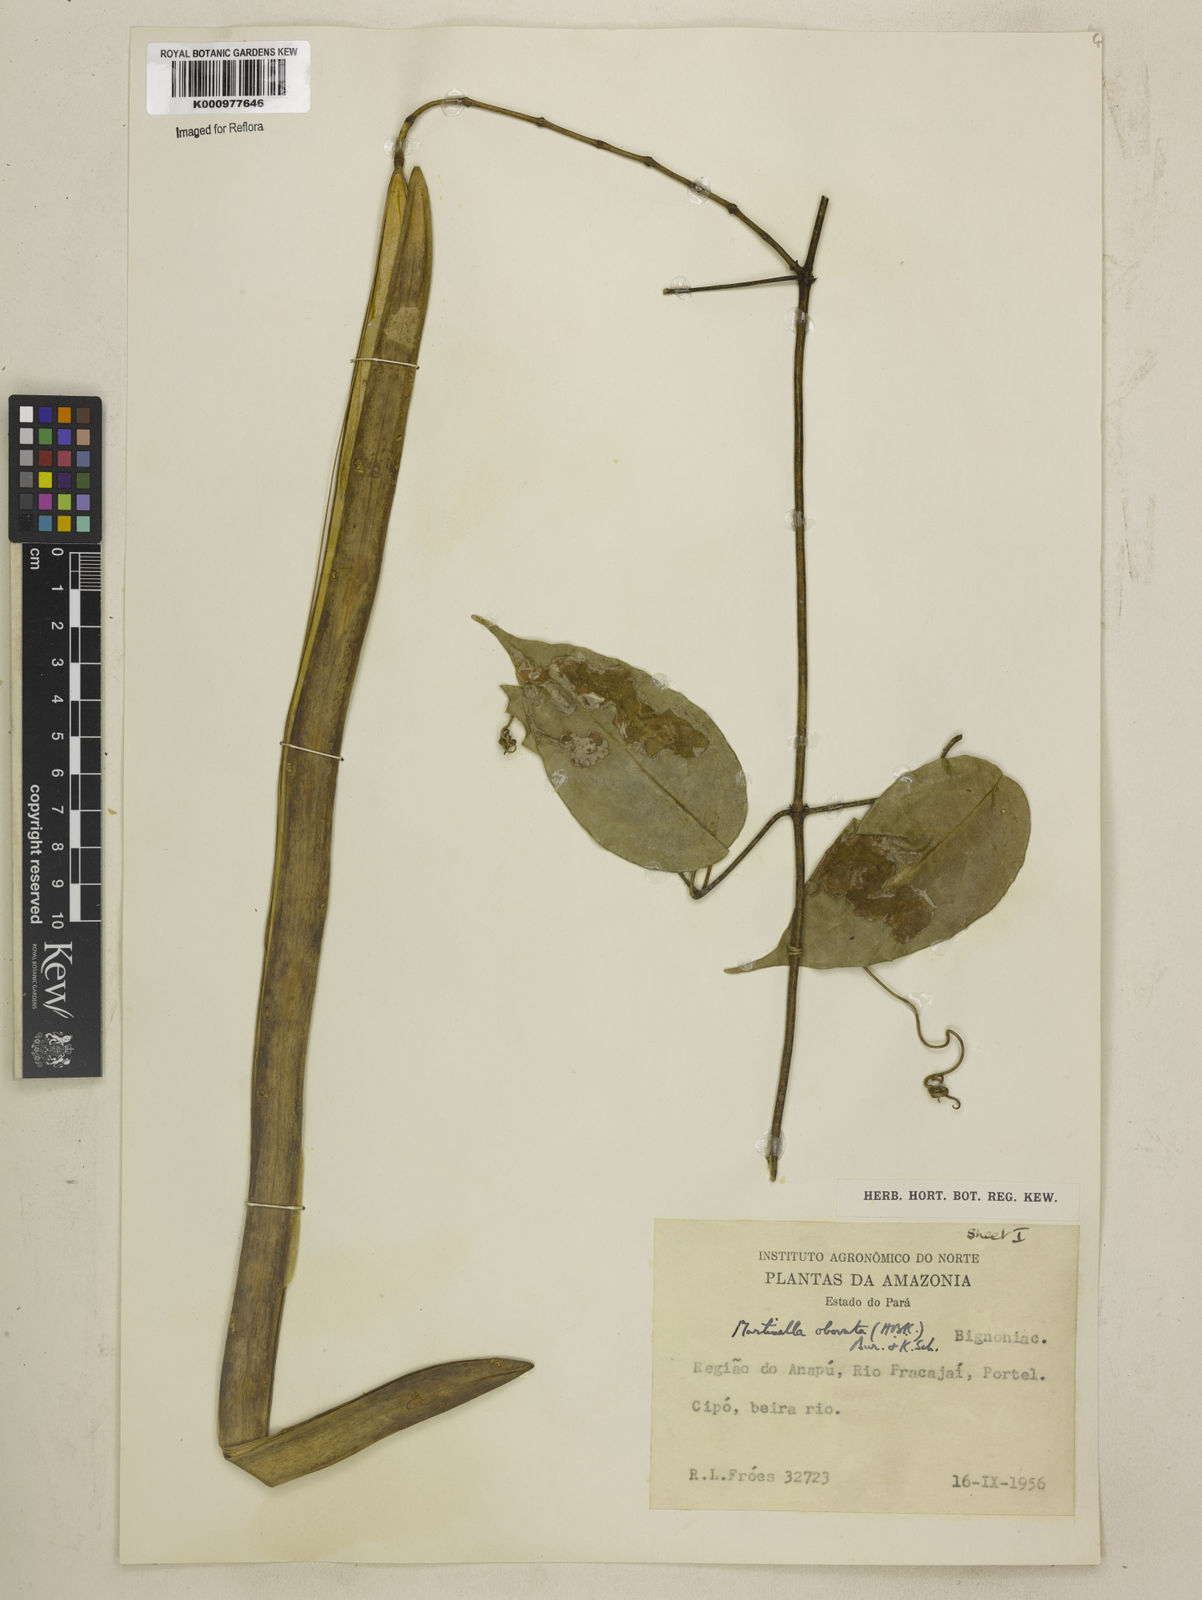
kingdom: Animalia
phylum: Arthropoda
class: Insecta
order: Coleoptera
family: Chrysomelidae
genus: Martinella
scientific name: Martinella obovata
